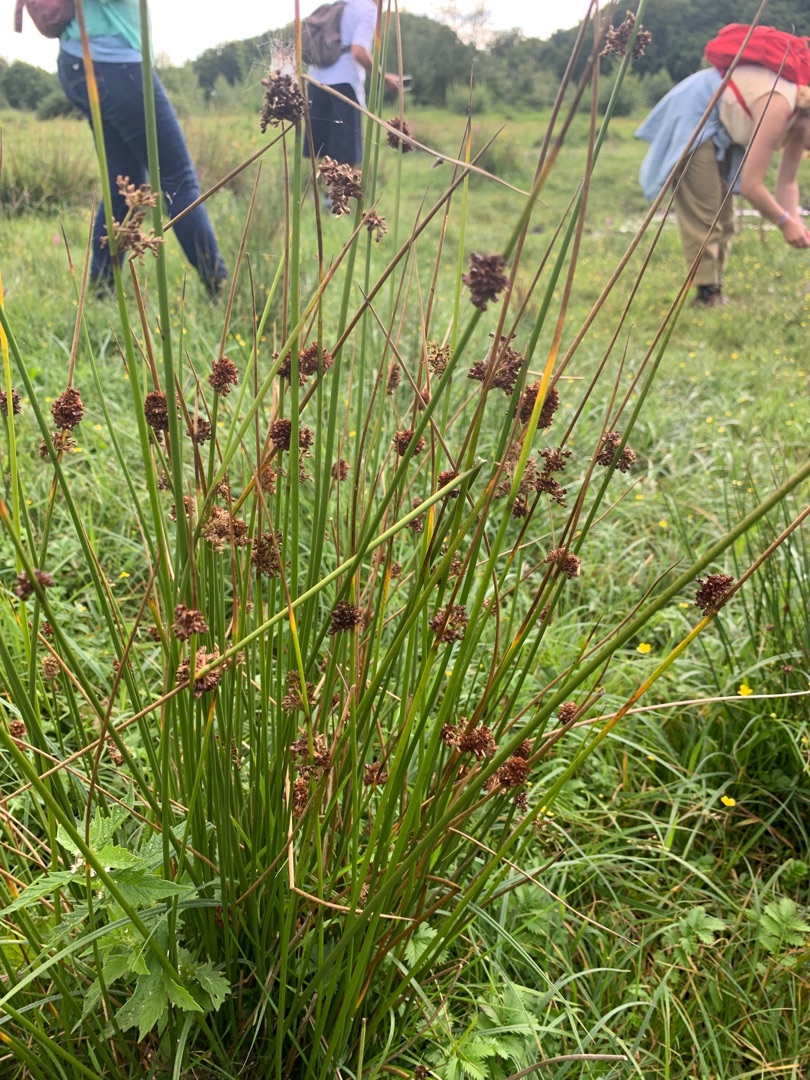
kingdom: Plantae
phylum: Tracheophyta
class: Liliopsida
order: Poales
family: Juncaceae
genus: Juncus
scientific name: Juncus conglomeratus
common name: Knop-siv
